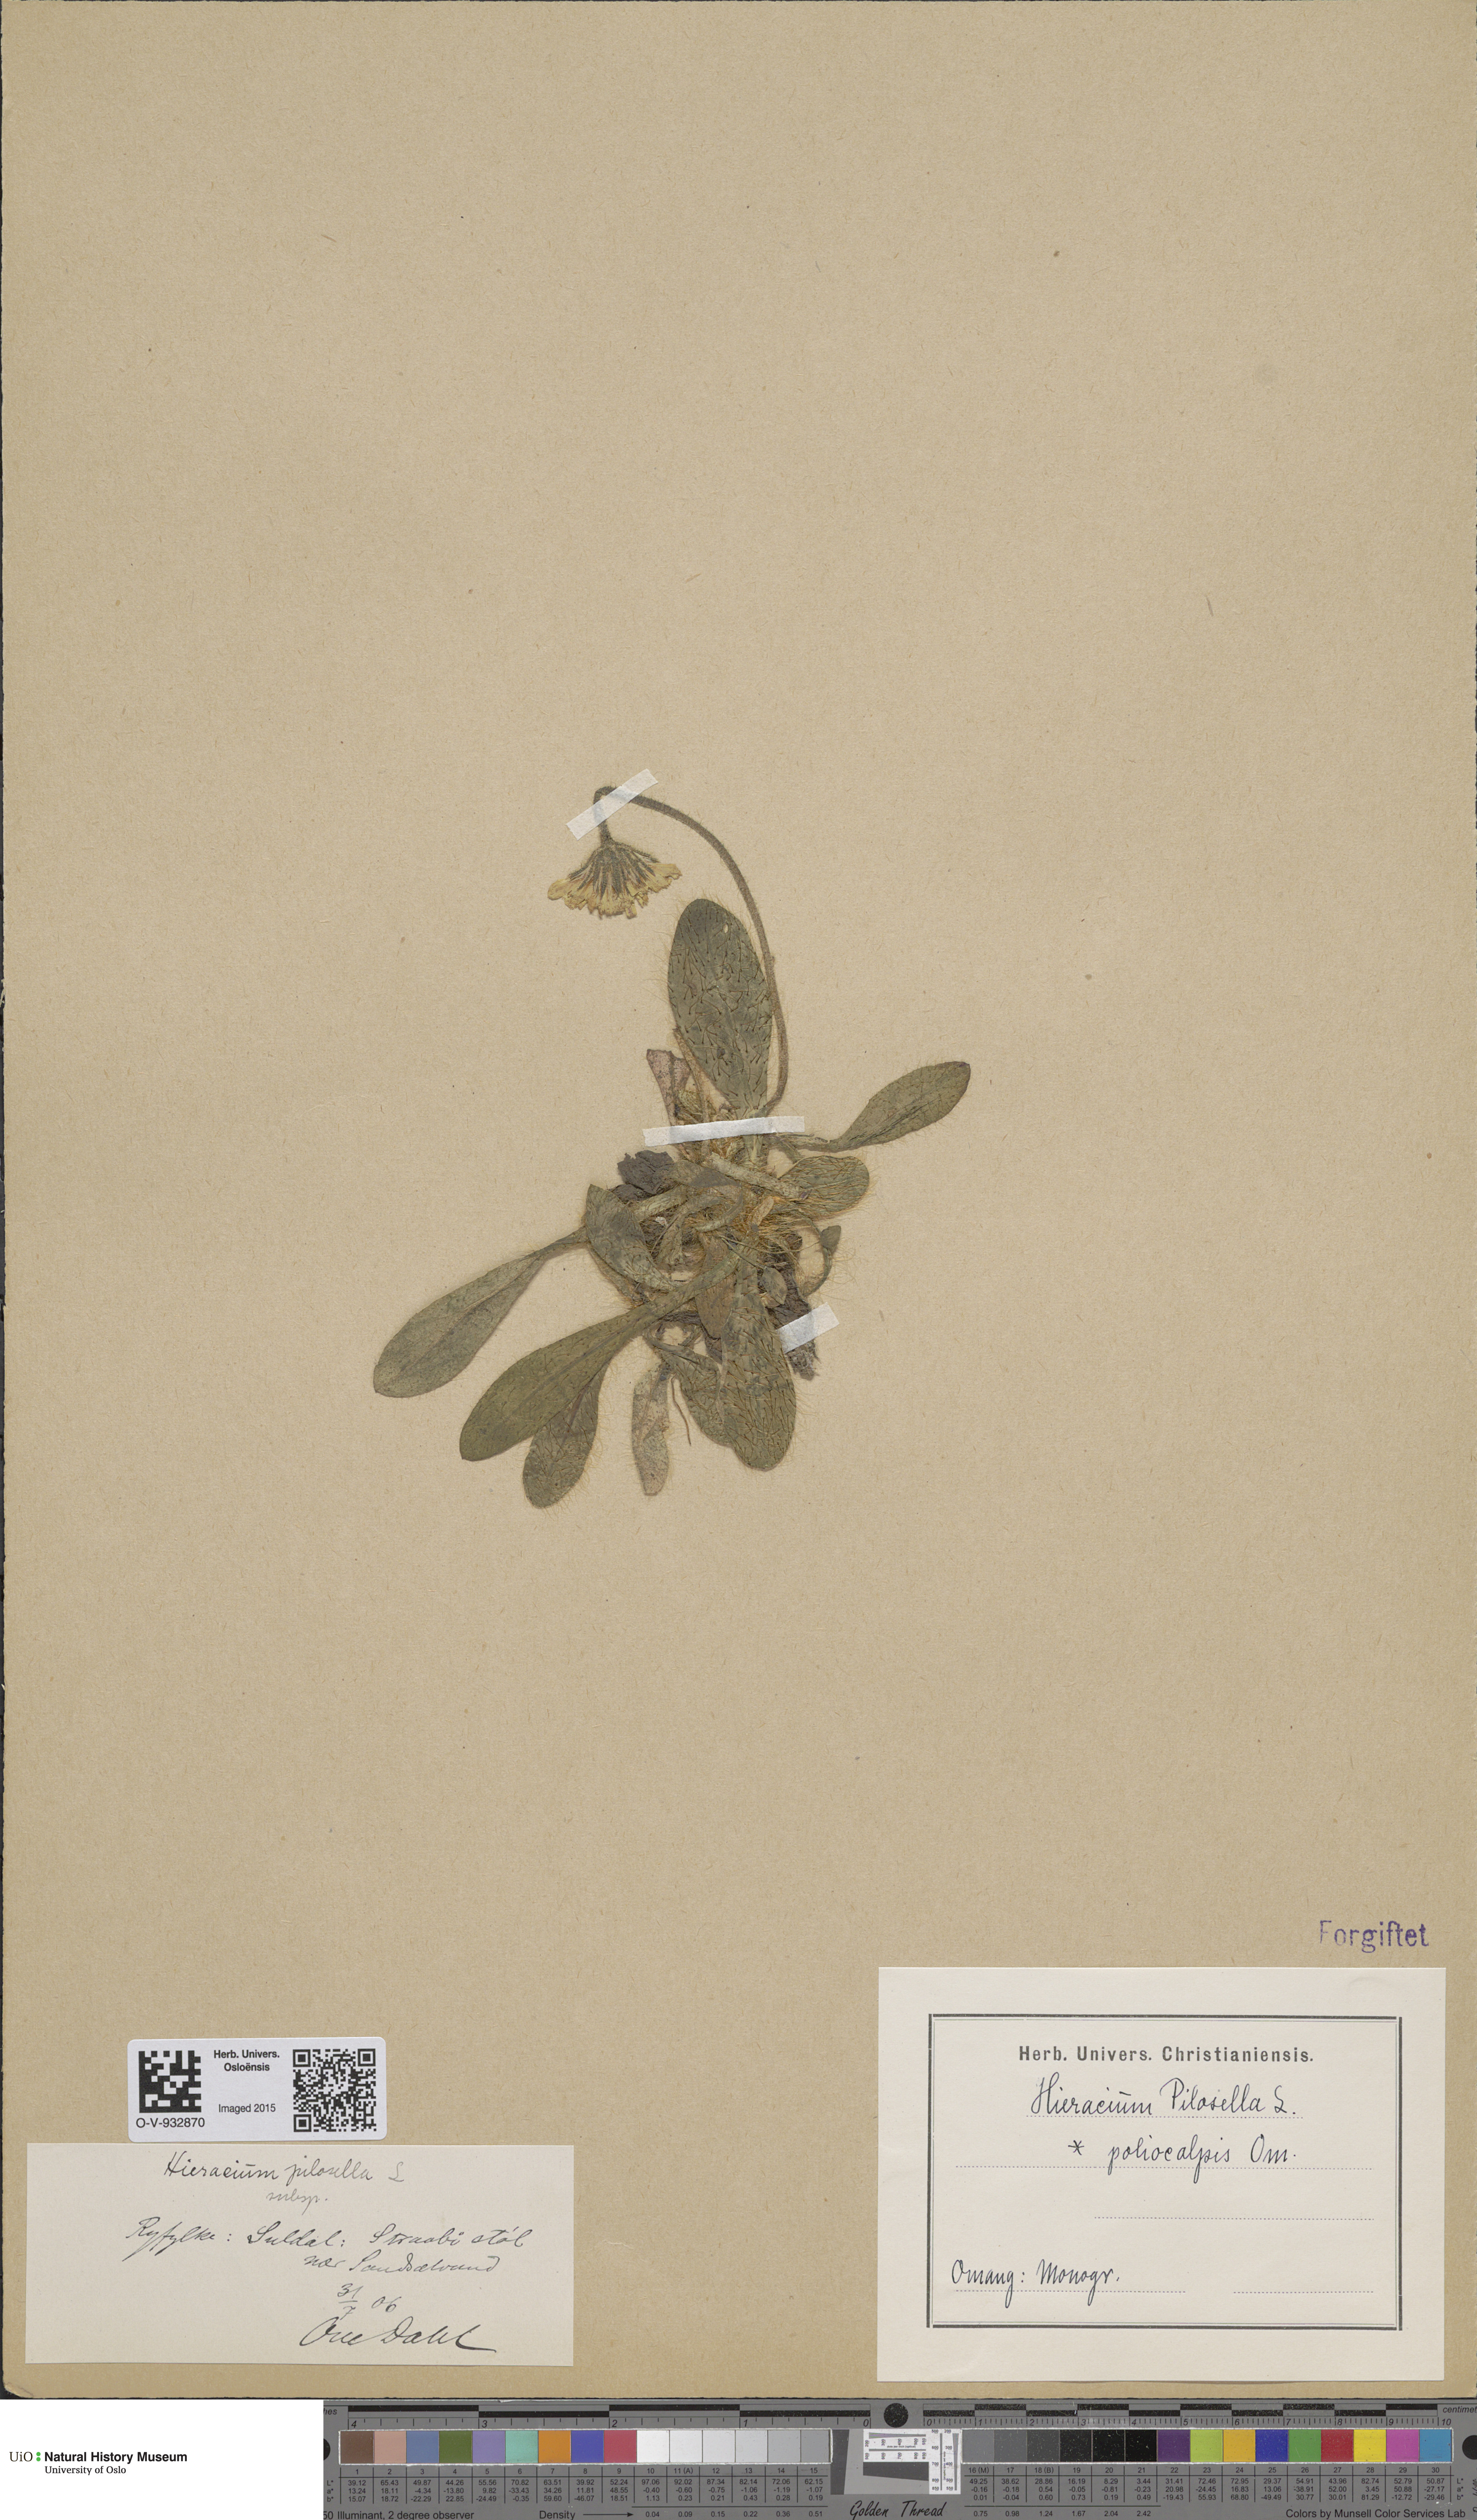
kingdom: Plantae
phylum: Tracheophyta
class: Magnoliopsida
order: Asterales
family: Asteraceae
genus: Pilosella
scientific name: Pilosella officinarum
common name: Mouse-ear hawkweed
